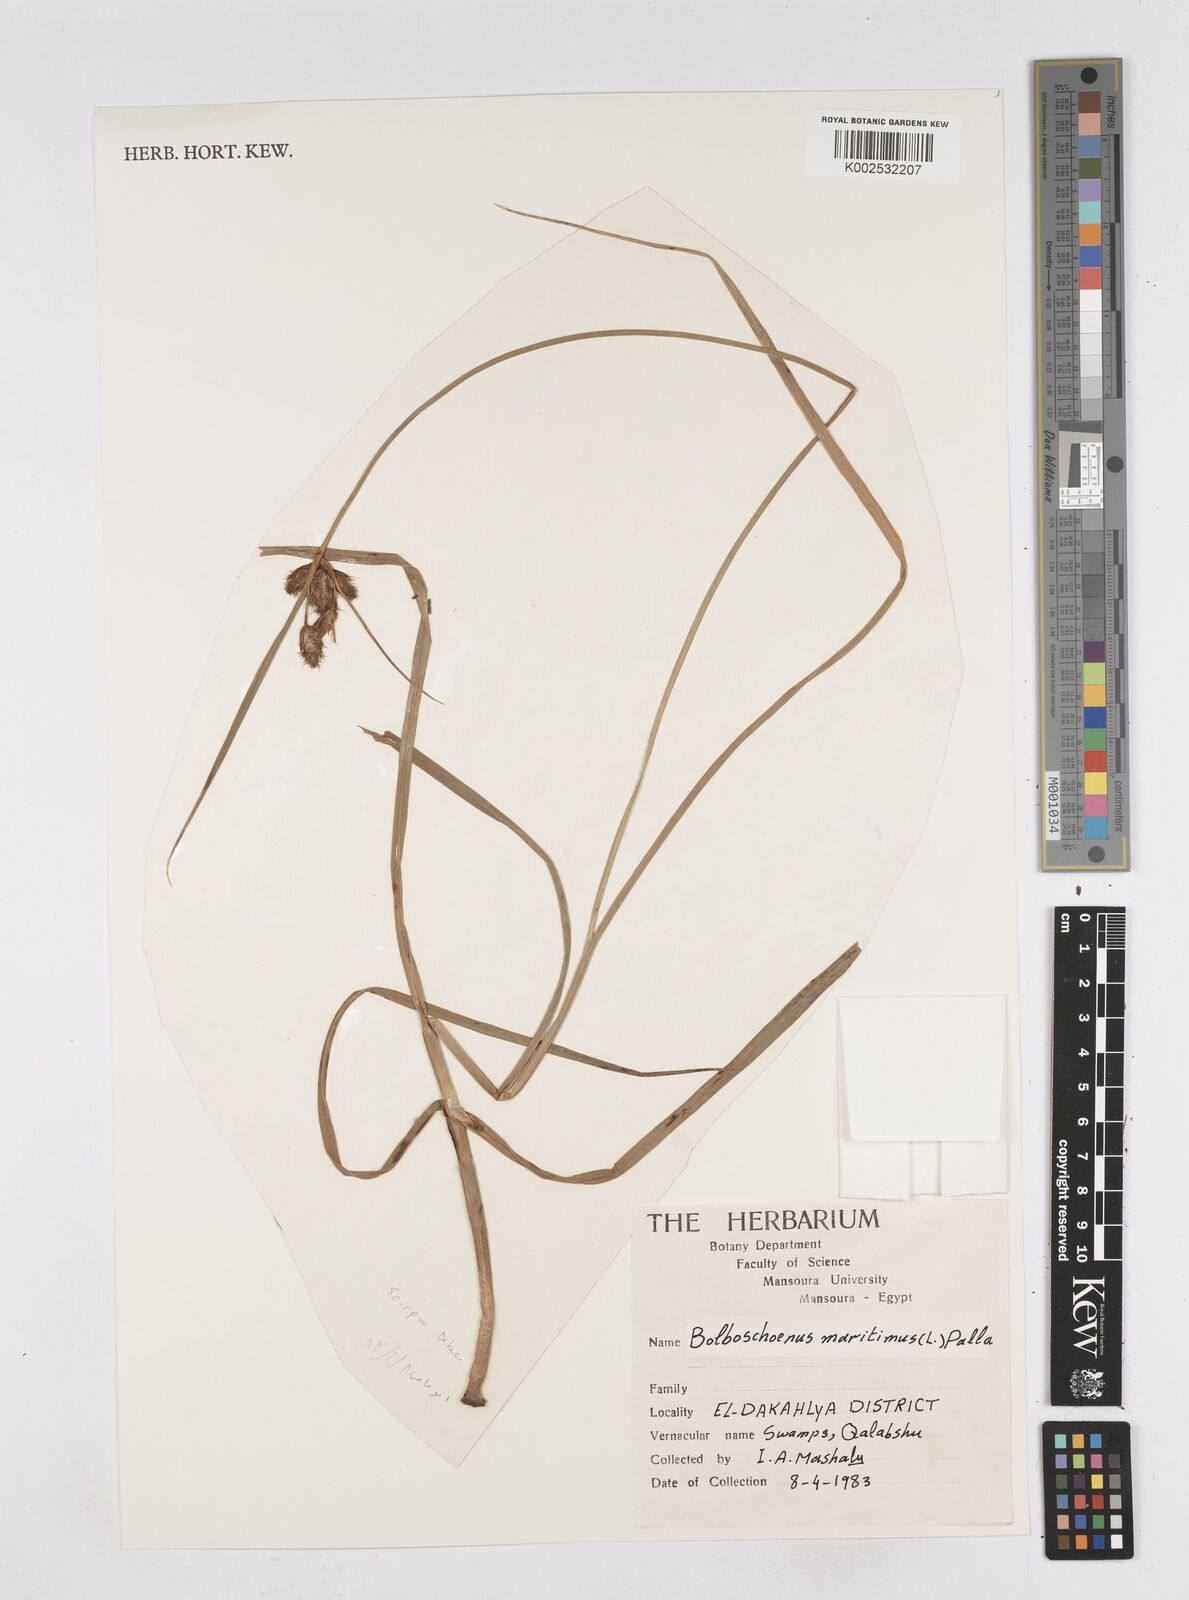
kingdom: Plantae
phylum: Tracheophyta
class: Liliopsida
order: Poales
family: Cyperaceae
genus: Bolboschoenus
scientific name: Bolboschoenus maritimus
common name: Sea club-rush
